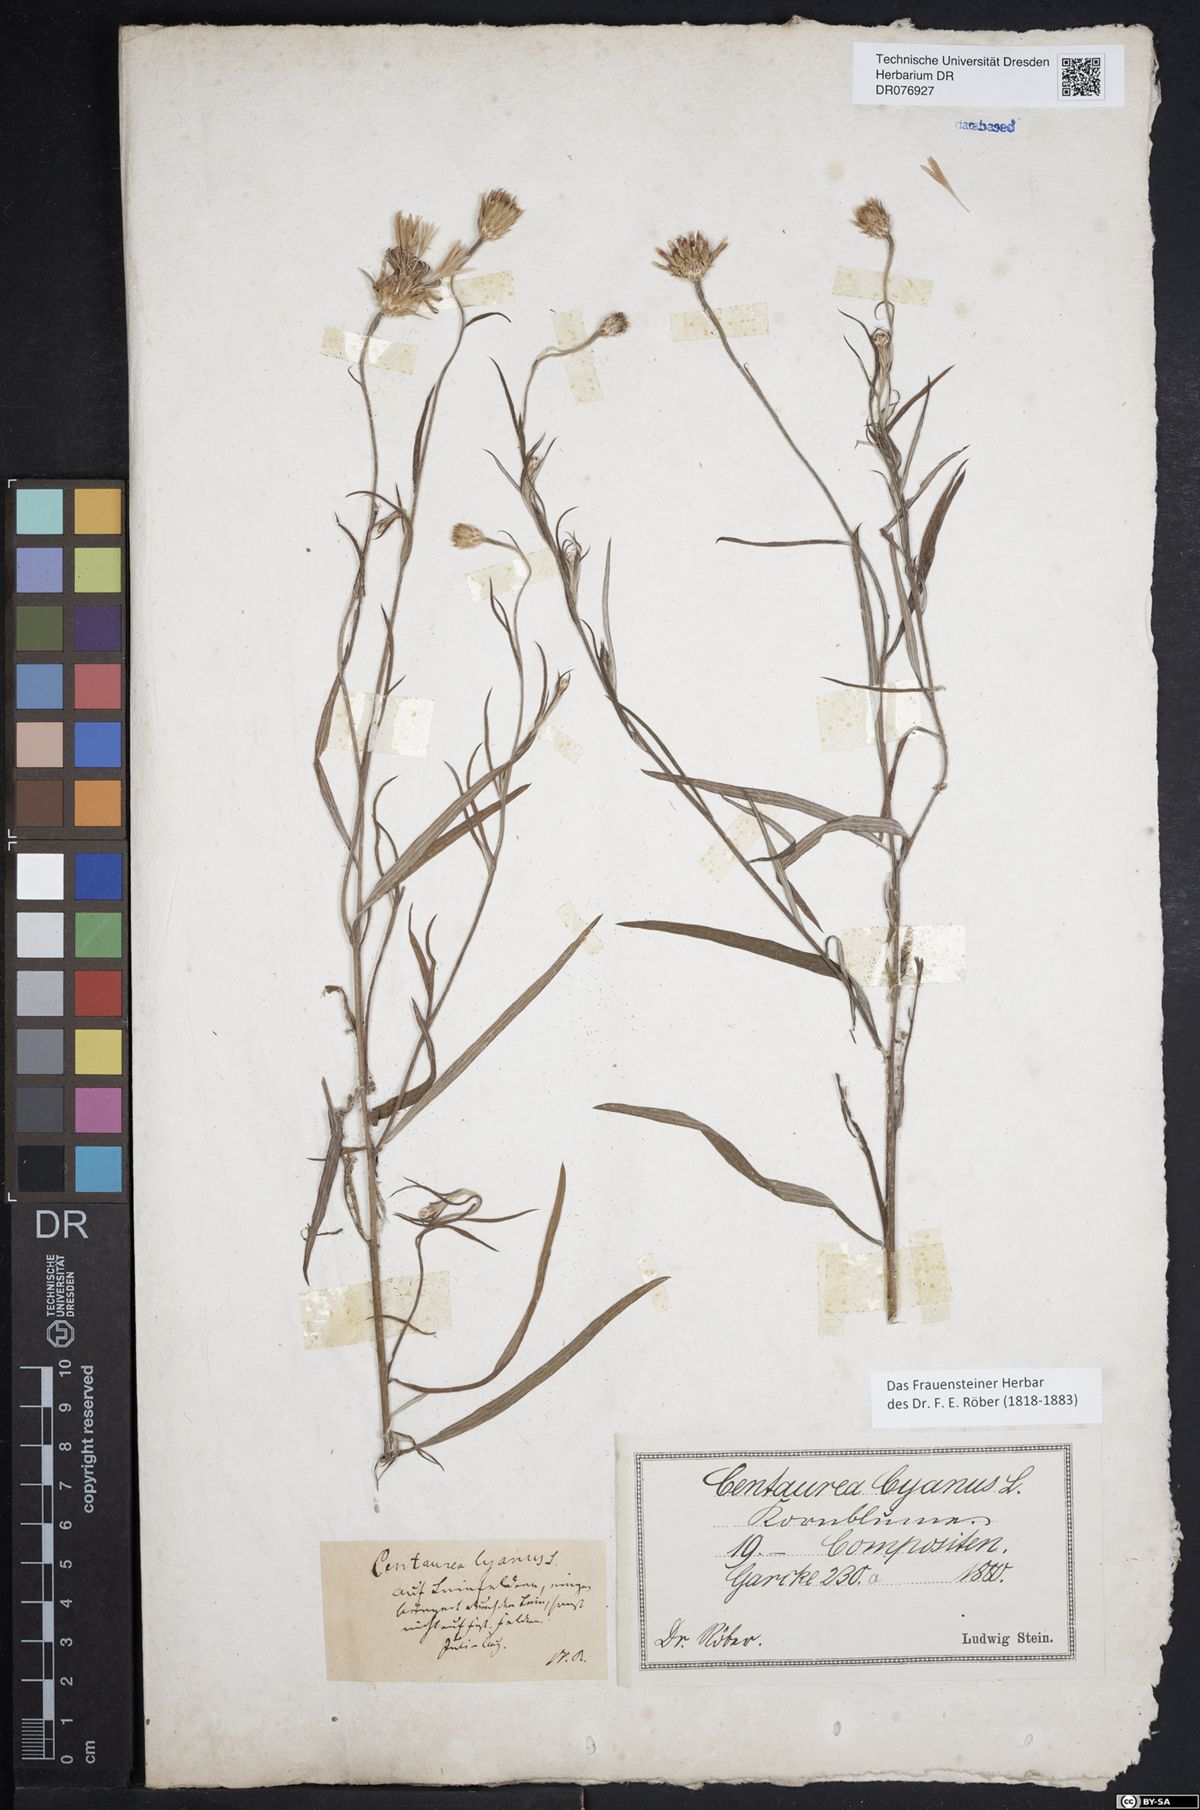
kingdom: Plantae
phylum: Tracheophyta
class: Magnoliopsida
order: Asterales
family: Asteraceae
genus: Centaurea
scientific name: Centaurea cyanus
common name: Cornflower
